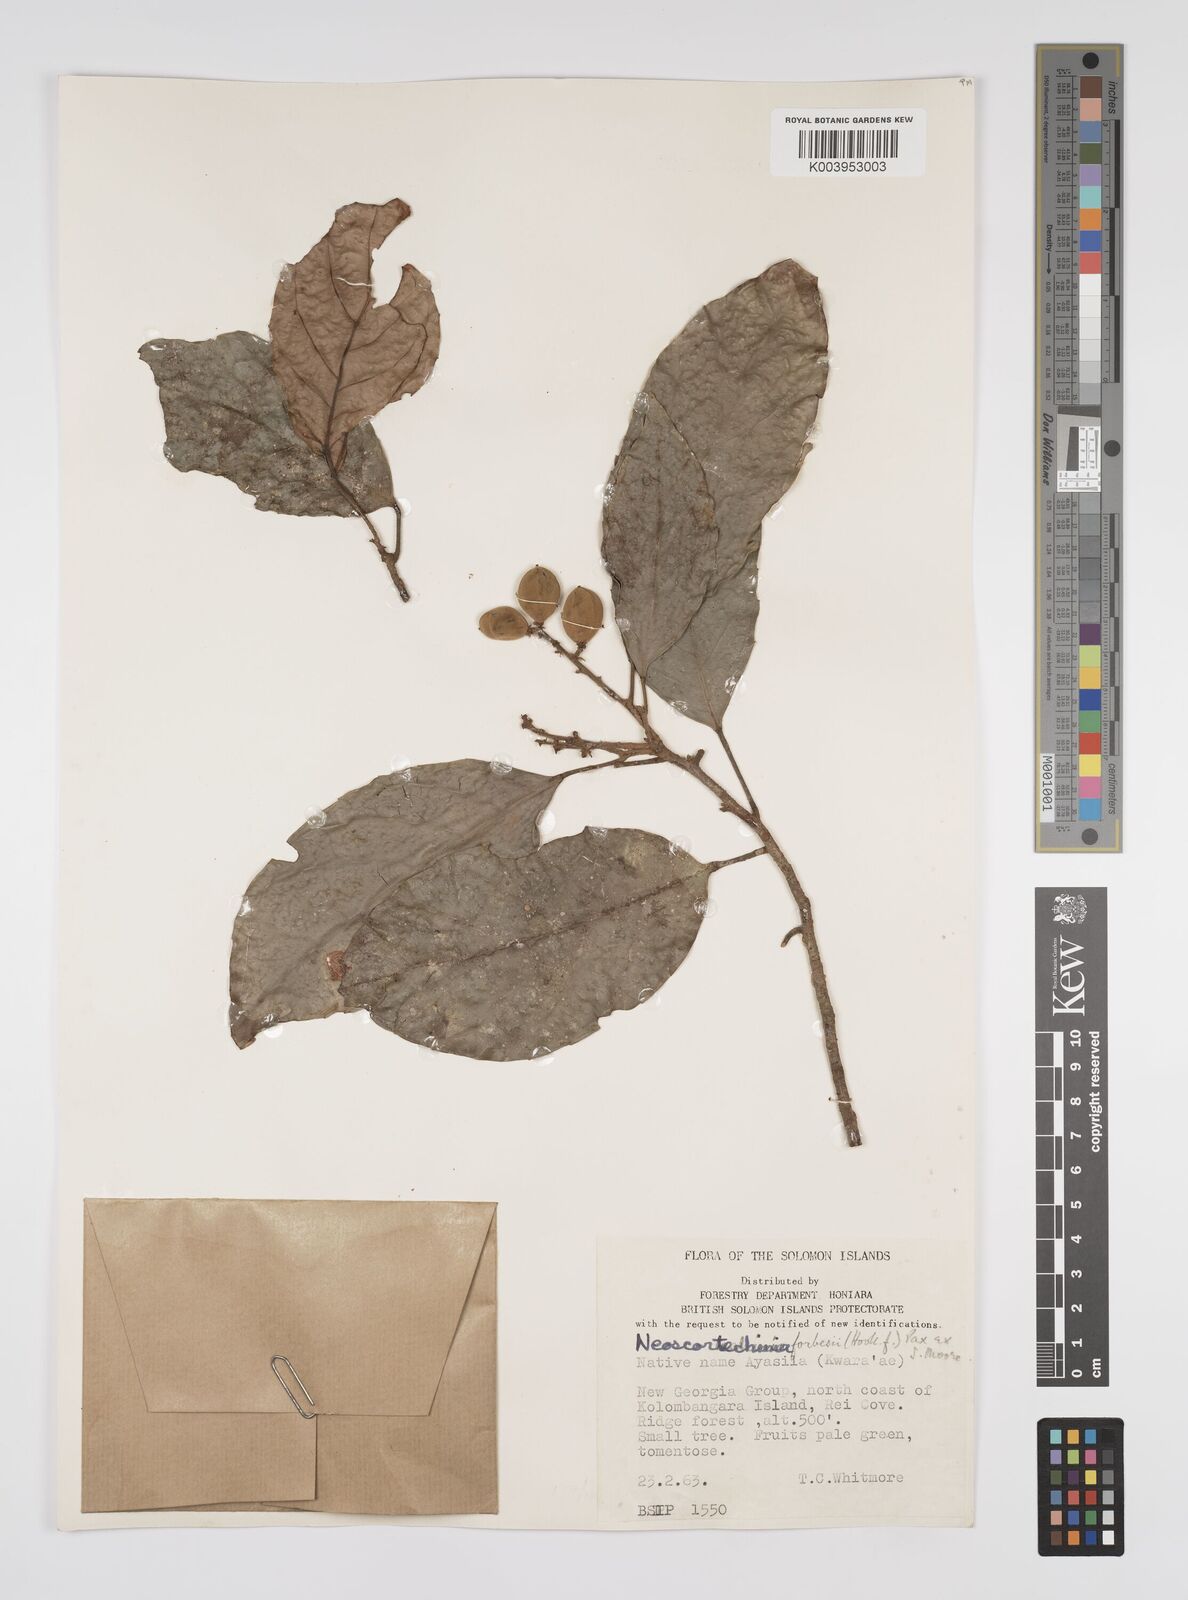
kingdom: Plantae
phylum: Tracheophyta
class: Magnoliopsida
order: Malpighiales
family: Euphorbiaceae
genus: Neoscortechinia
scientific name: Neoscortechinia forbesii
